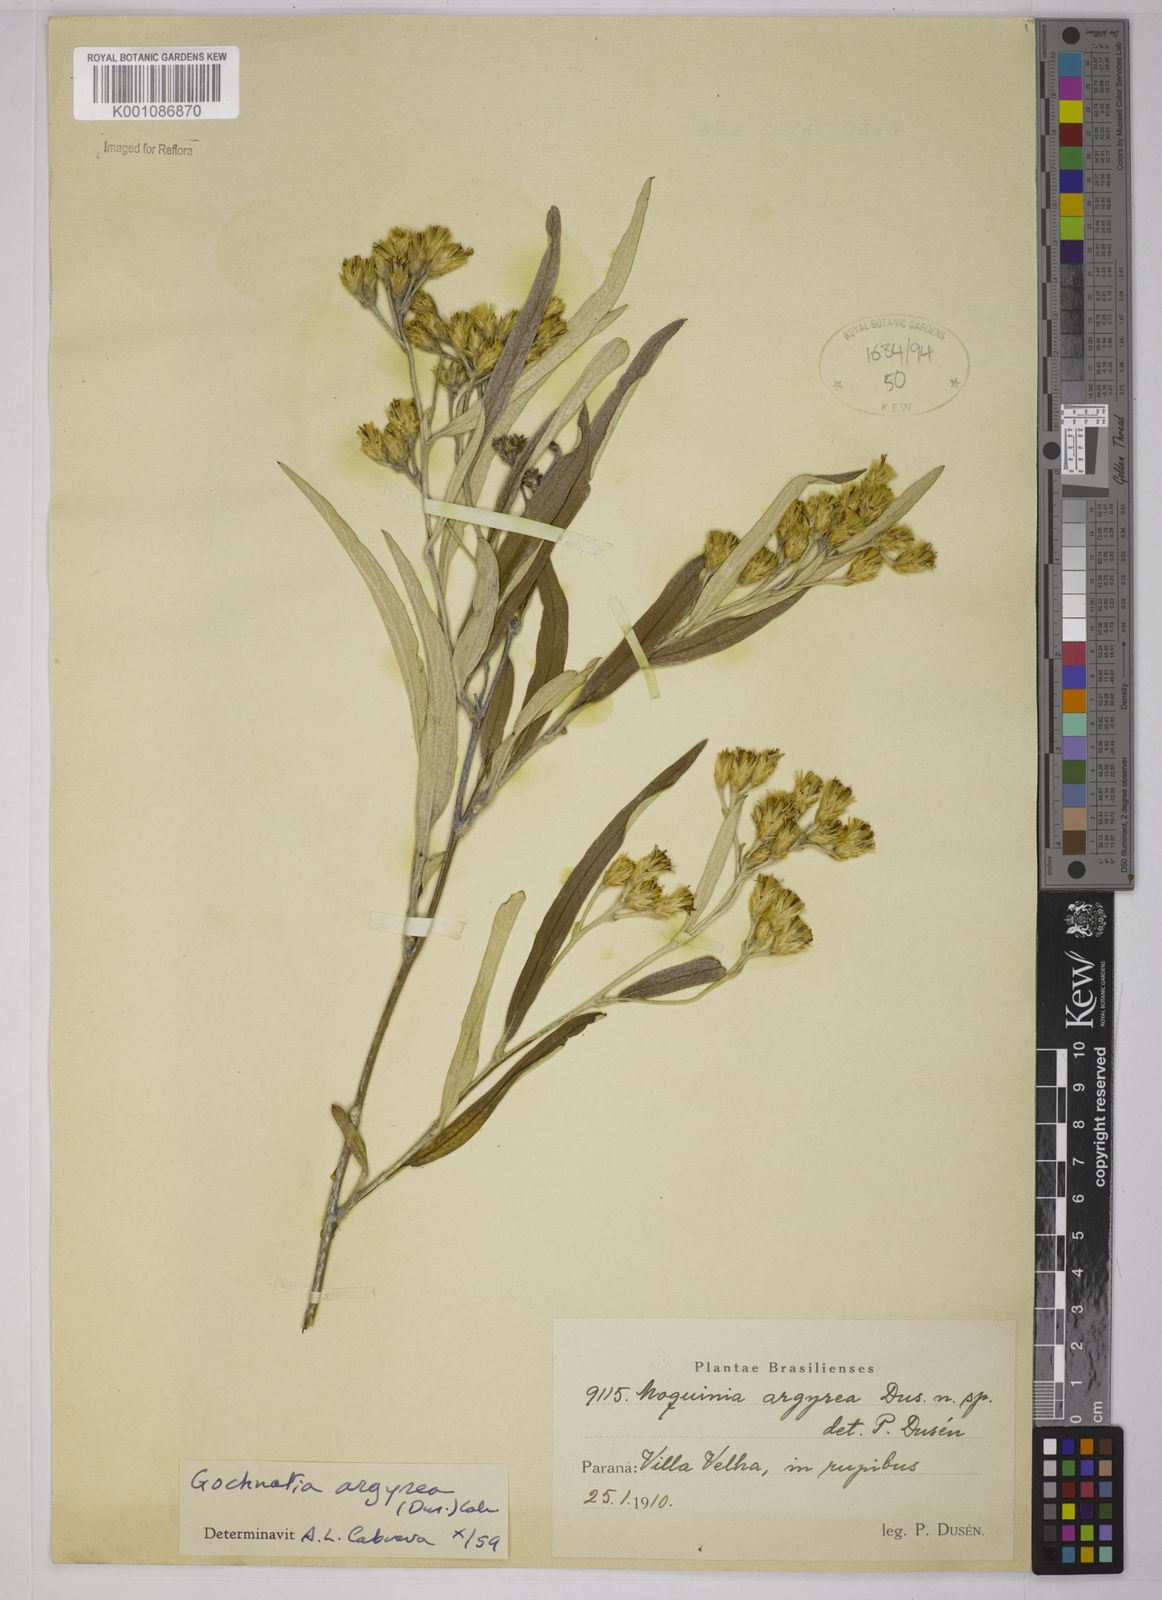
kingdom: Plantae
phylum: Tracheophyta
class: Magnoliopsida
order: Asterales
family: Asteraceae
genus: Gochnatia
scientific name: Gochnatia
